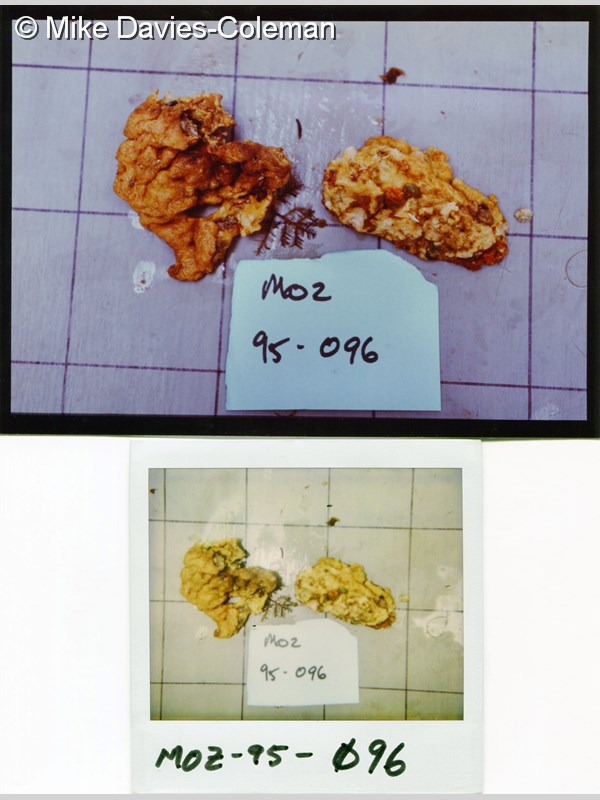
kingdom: Animalia
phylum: Chordata
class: Ascidiacea
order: Aplousobranchia
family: Didemnidae
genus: Didemnum
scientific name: Didemnum
